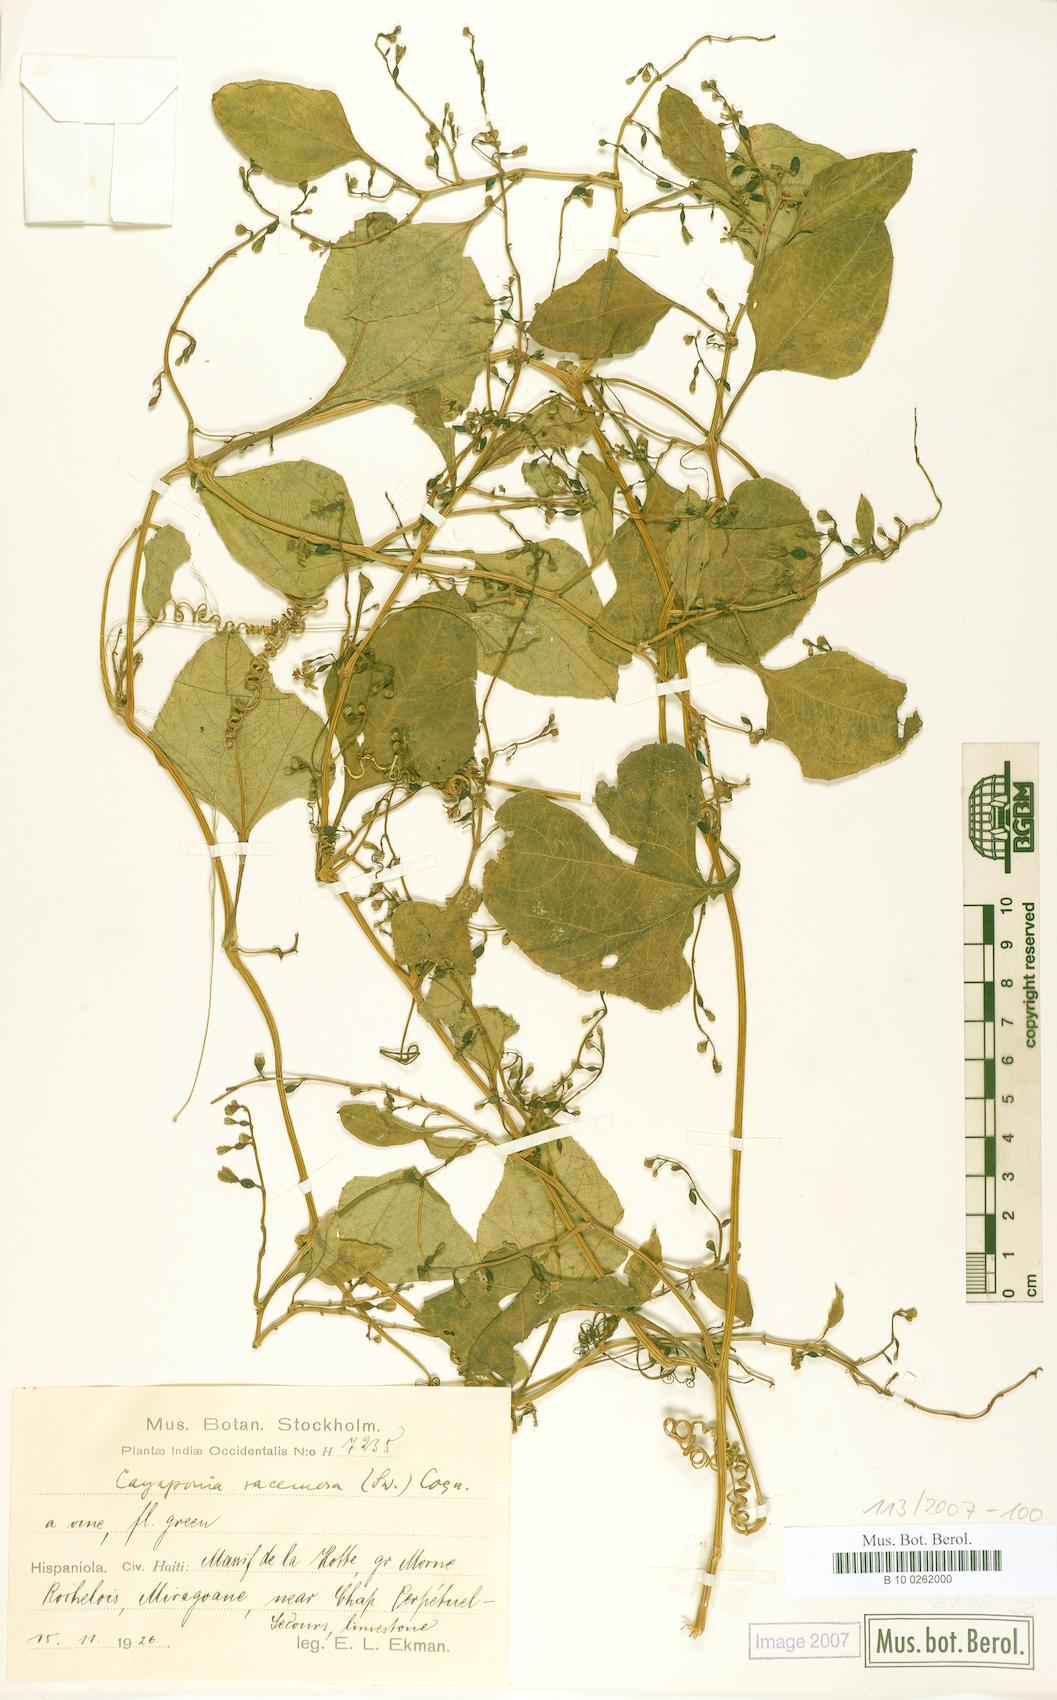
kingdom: Plantae
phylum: Tracheophyta
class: Magnoliopsida
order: Cucurbitales
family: Cucurbitaceae
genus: Cayaponia
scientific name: Cayaponia racemosa
